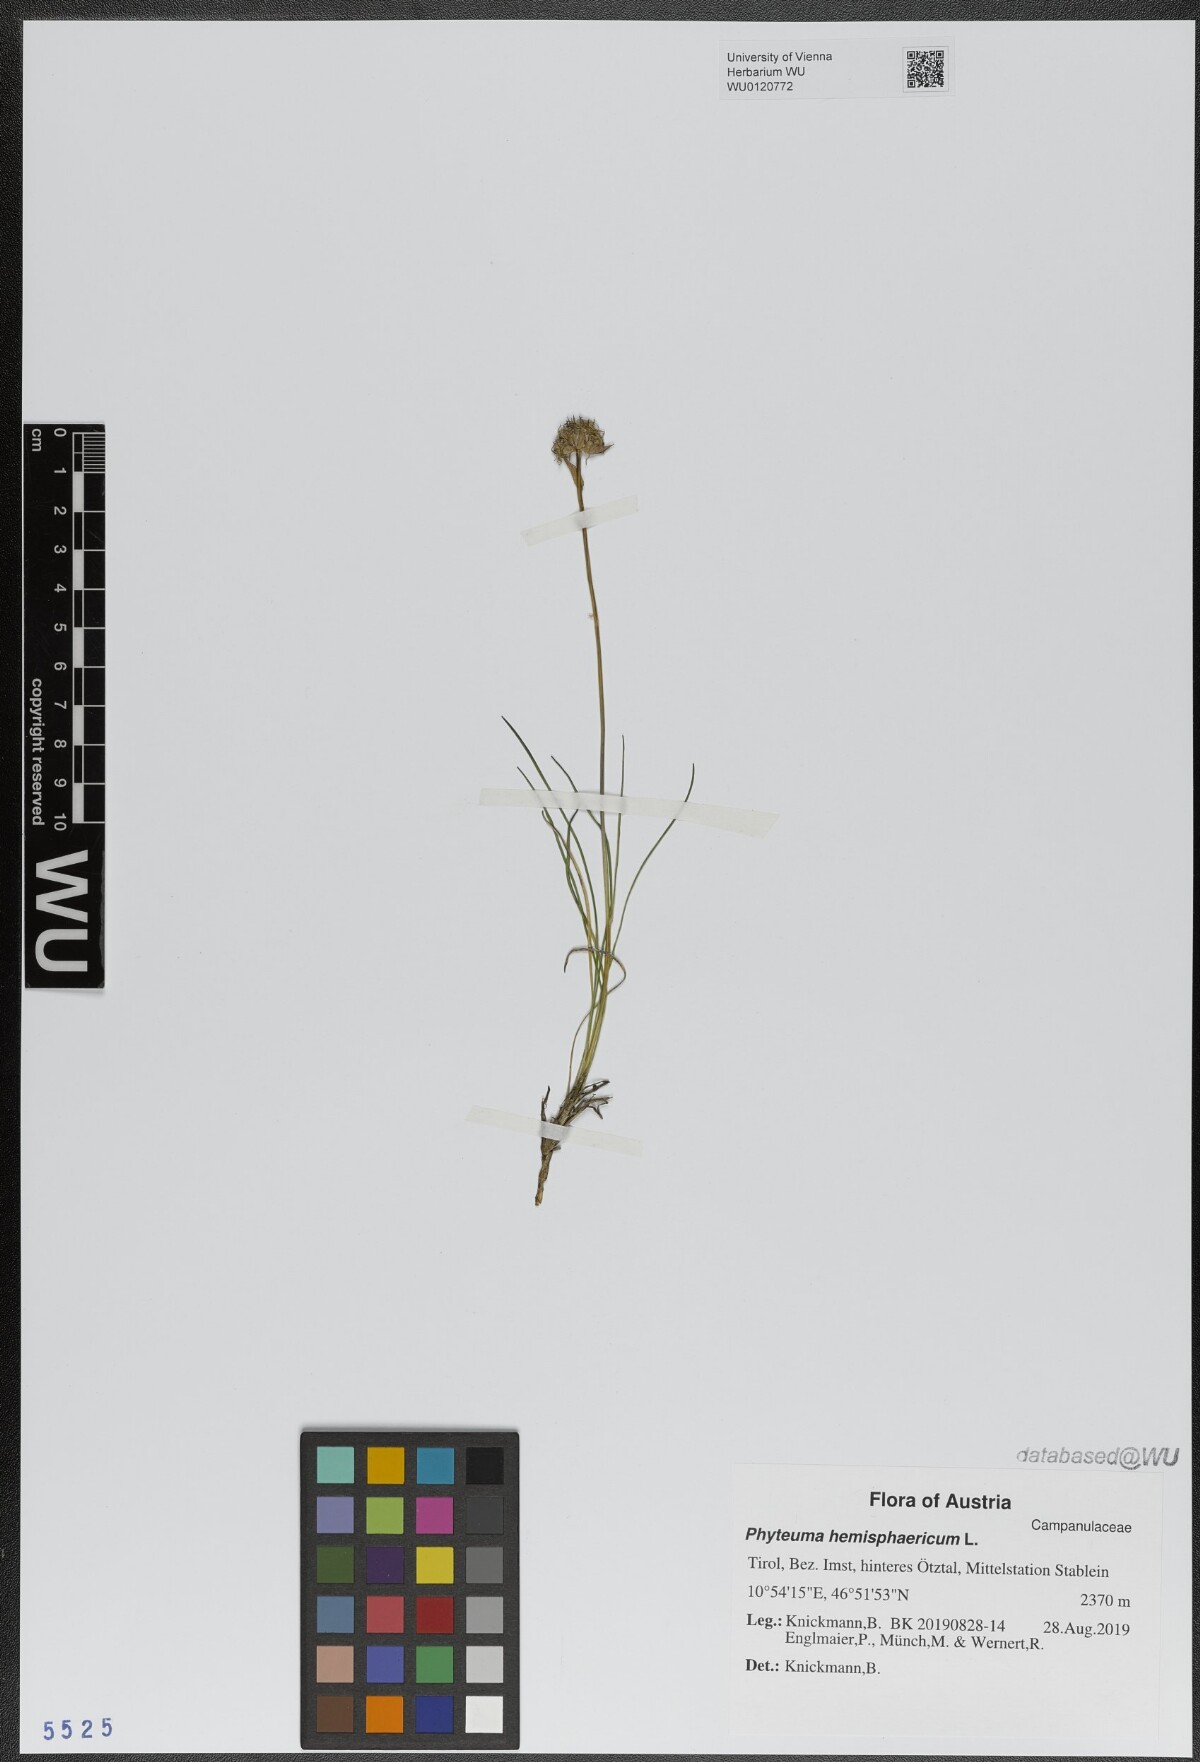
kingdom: Plantae
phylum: Tracheophyta
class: Magnoliopsida
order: Asterales
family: Campanulaceae
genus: Phyteuma
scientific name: Phyteuma hemisphaericum
